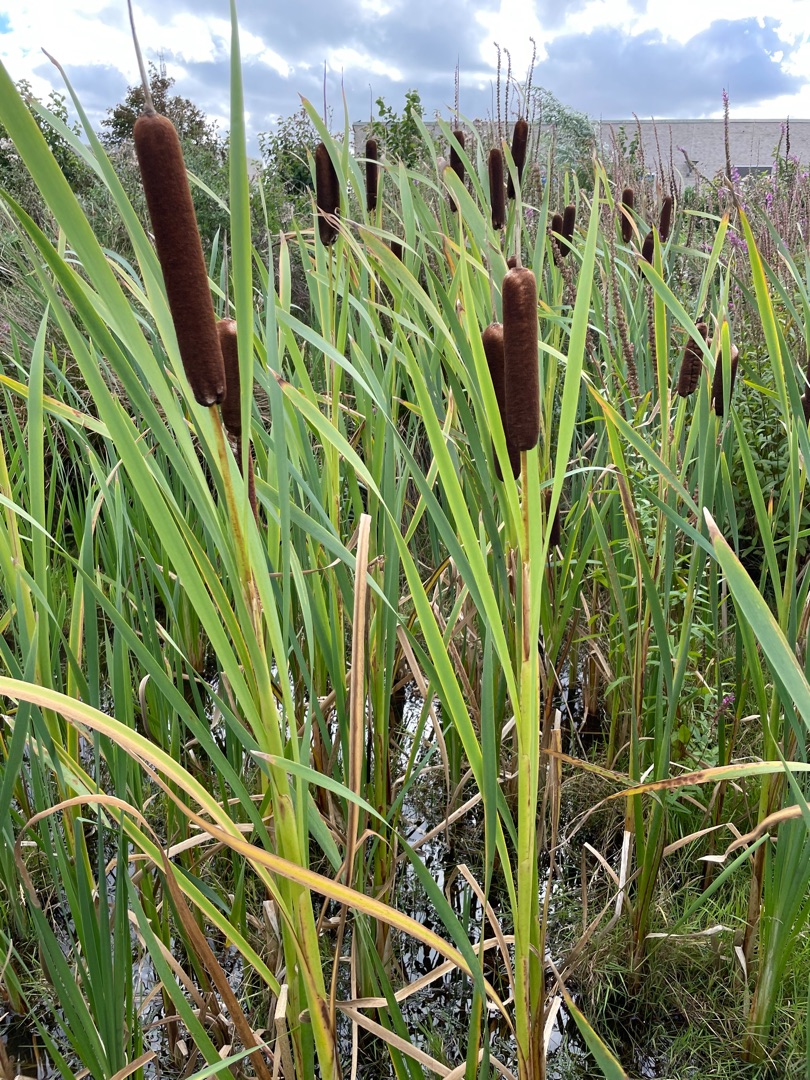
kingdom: Plantae
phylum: Tracheophyta
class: Liliopsida
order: Poales
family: Typhaceae
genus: Typha
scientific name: Typha latifolia
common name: Bredbladet dunhammer
